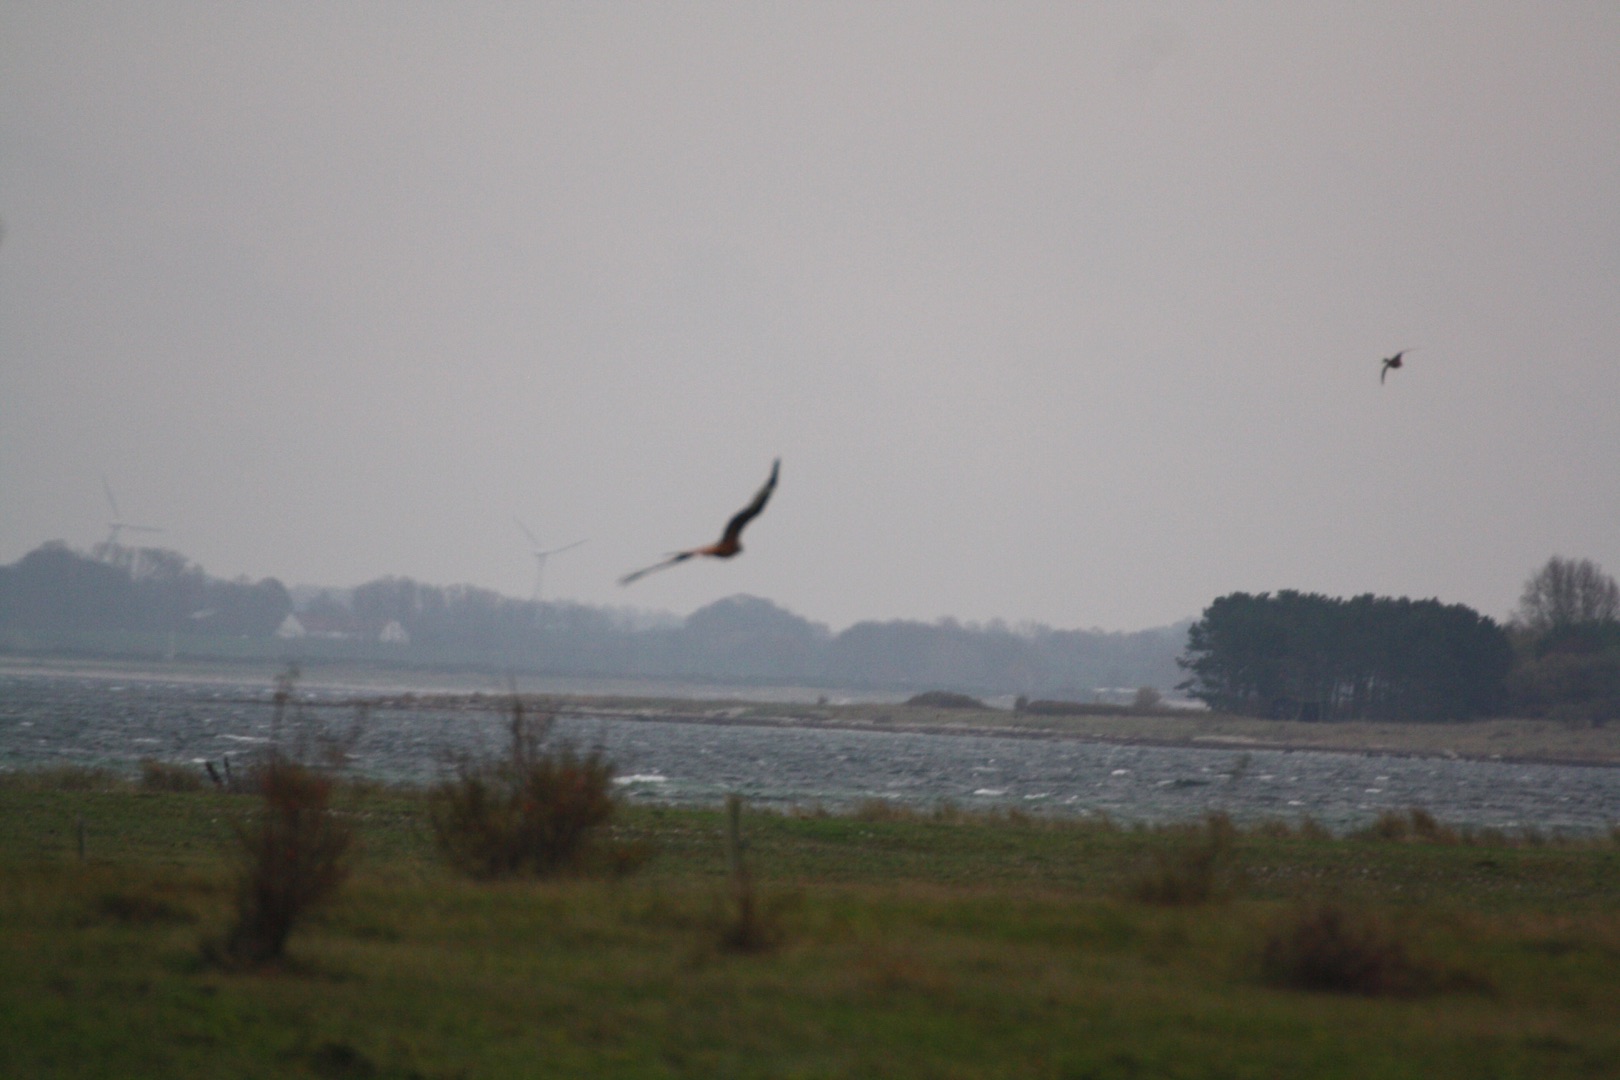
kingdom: Animalia
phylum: Chordata
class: Aves
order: Accipitriformes
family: Accipitridae
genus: Milvus
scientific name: Milvus milvus
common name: Rød glente
